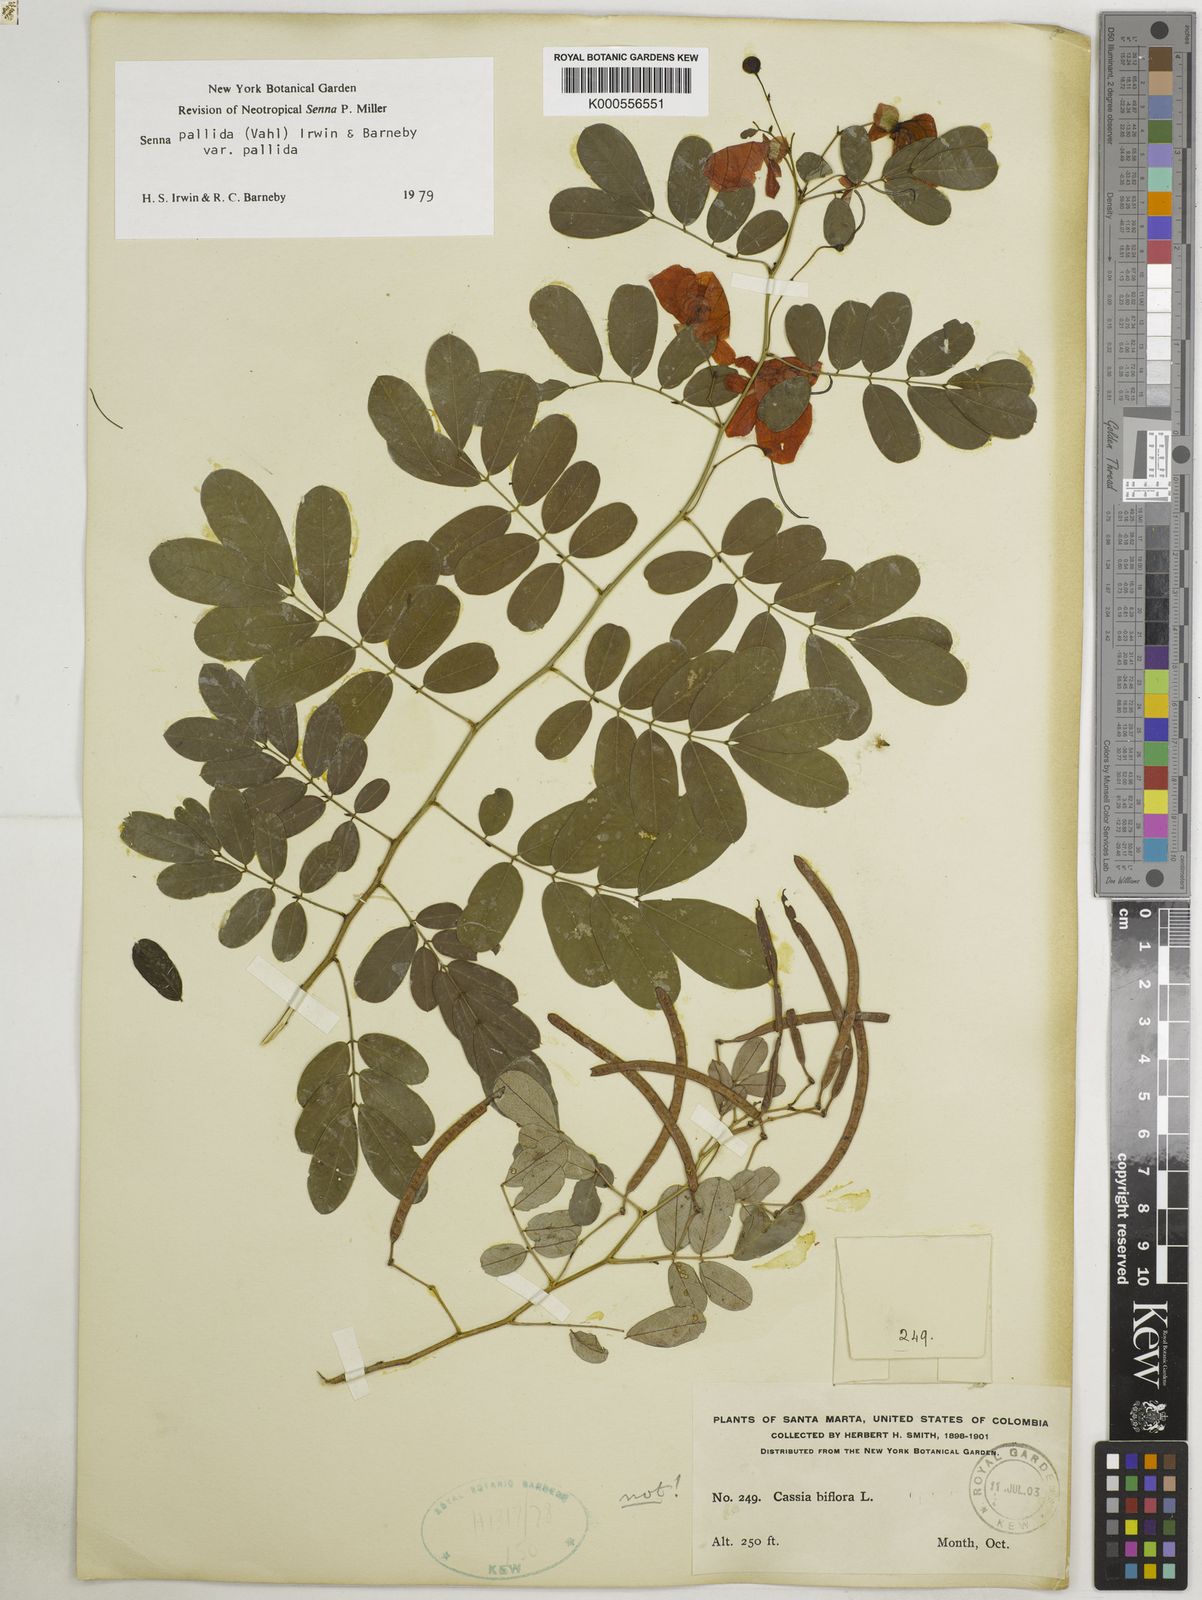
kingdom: Plantae
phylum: Tracheophyta
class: Magnoliopsida
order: Fabales
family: Fabaceae
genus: Senna
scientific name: Senna pallida
